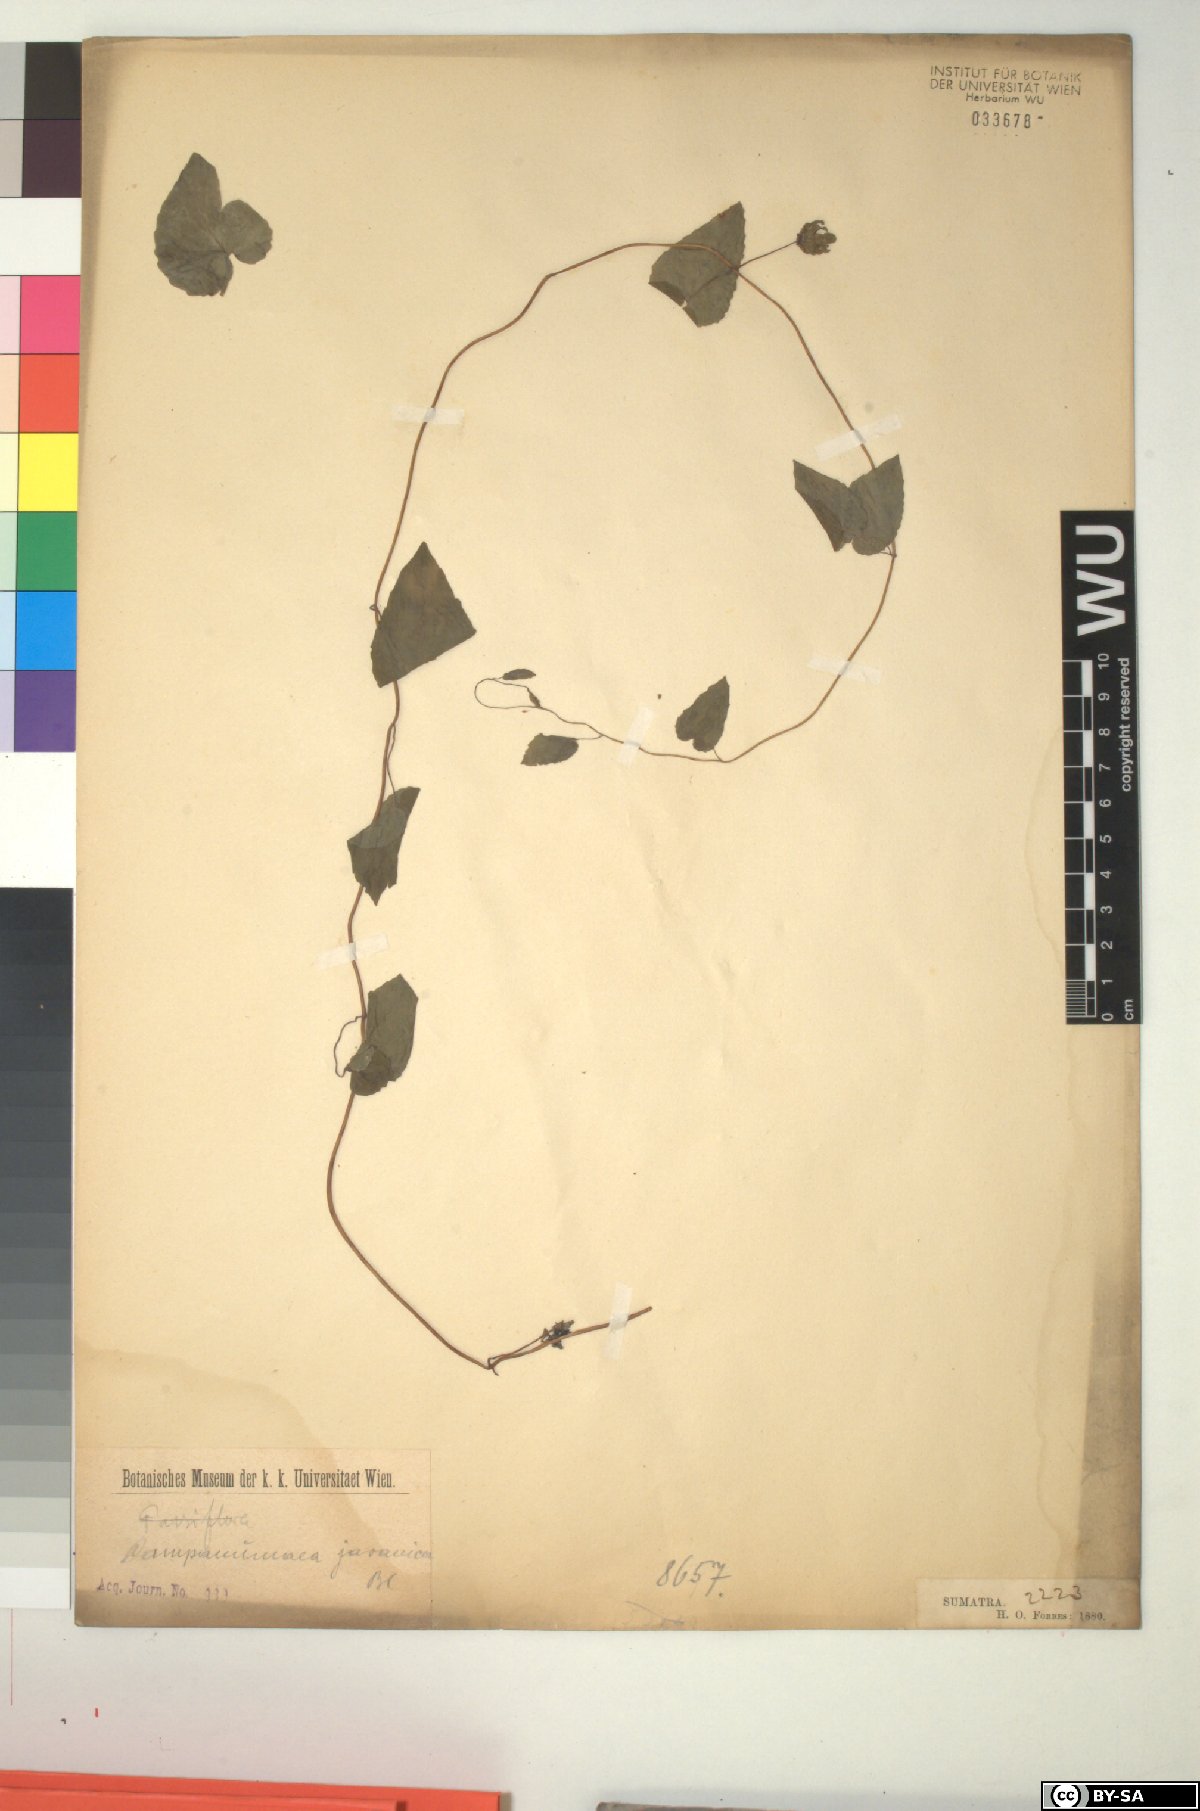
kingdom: Plantae
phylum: Tracheophyta
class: Magnoliopsida
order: Asterales
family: Campanulaceae
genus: Codonopsis
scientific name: Codonopsis javanica
